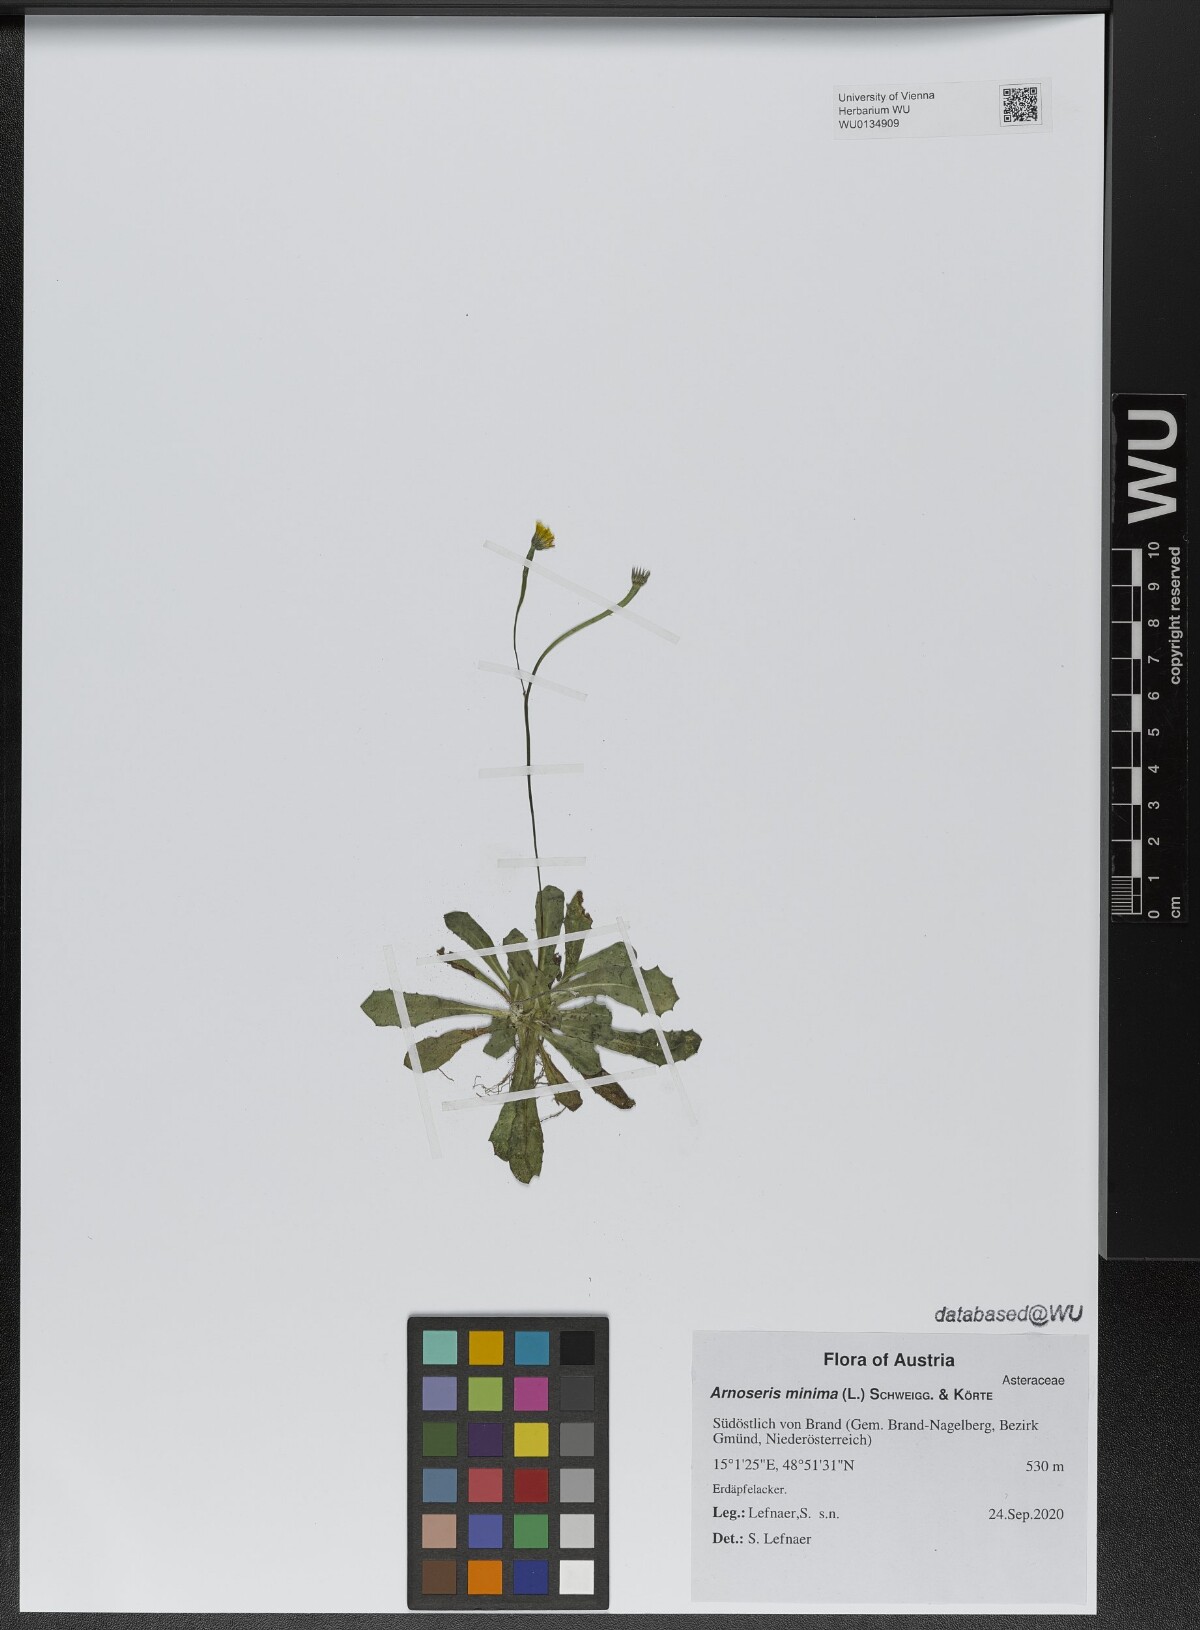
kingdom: Plantae
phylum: Tracheophyta
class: Magnoliopsida
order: Asterales
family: Asteraceae
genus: Arnoseris
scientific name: Arnoseris minima
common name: Lamb's succory
